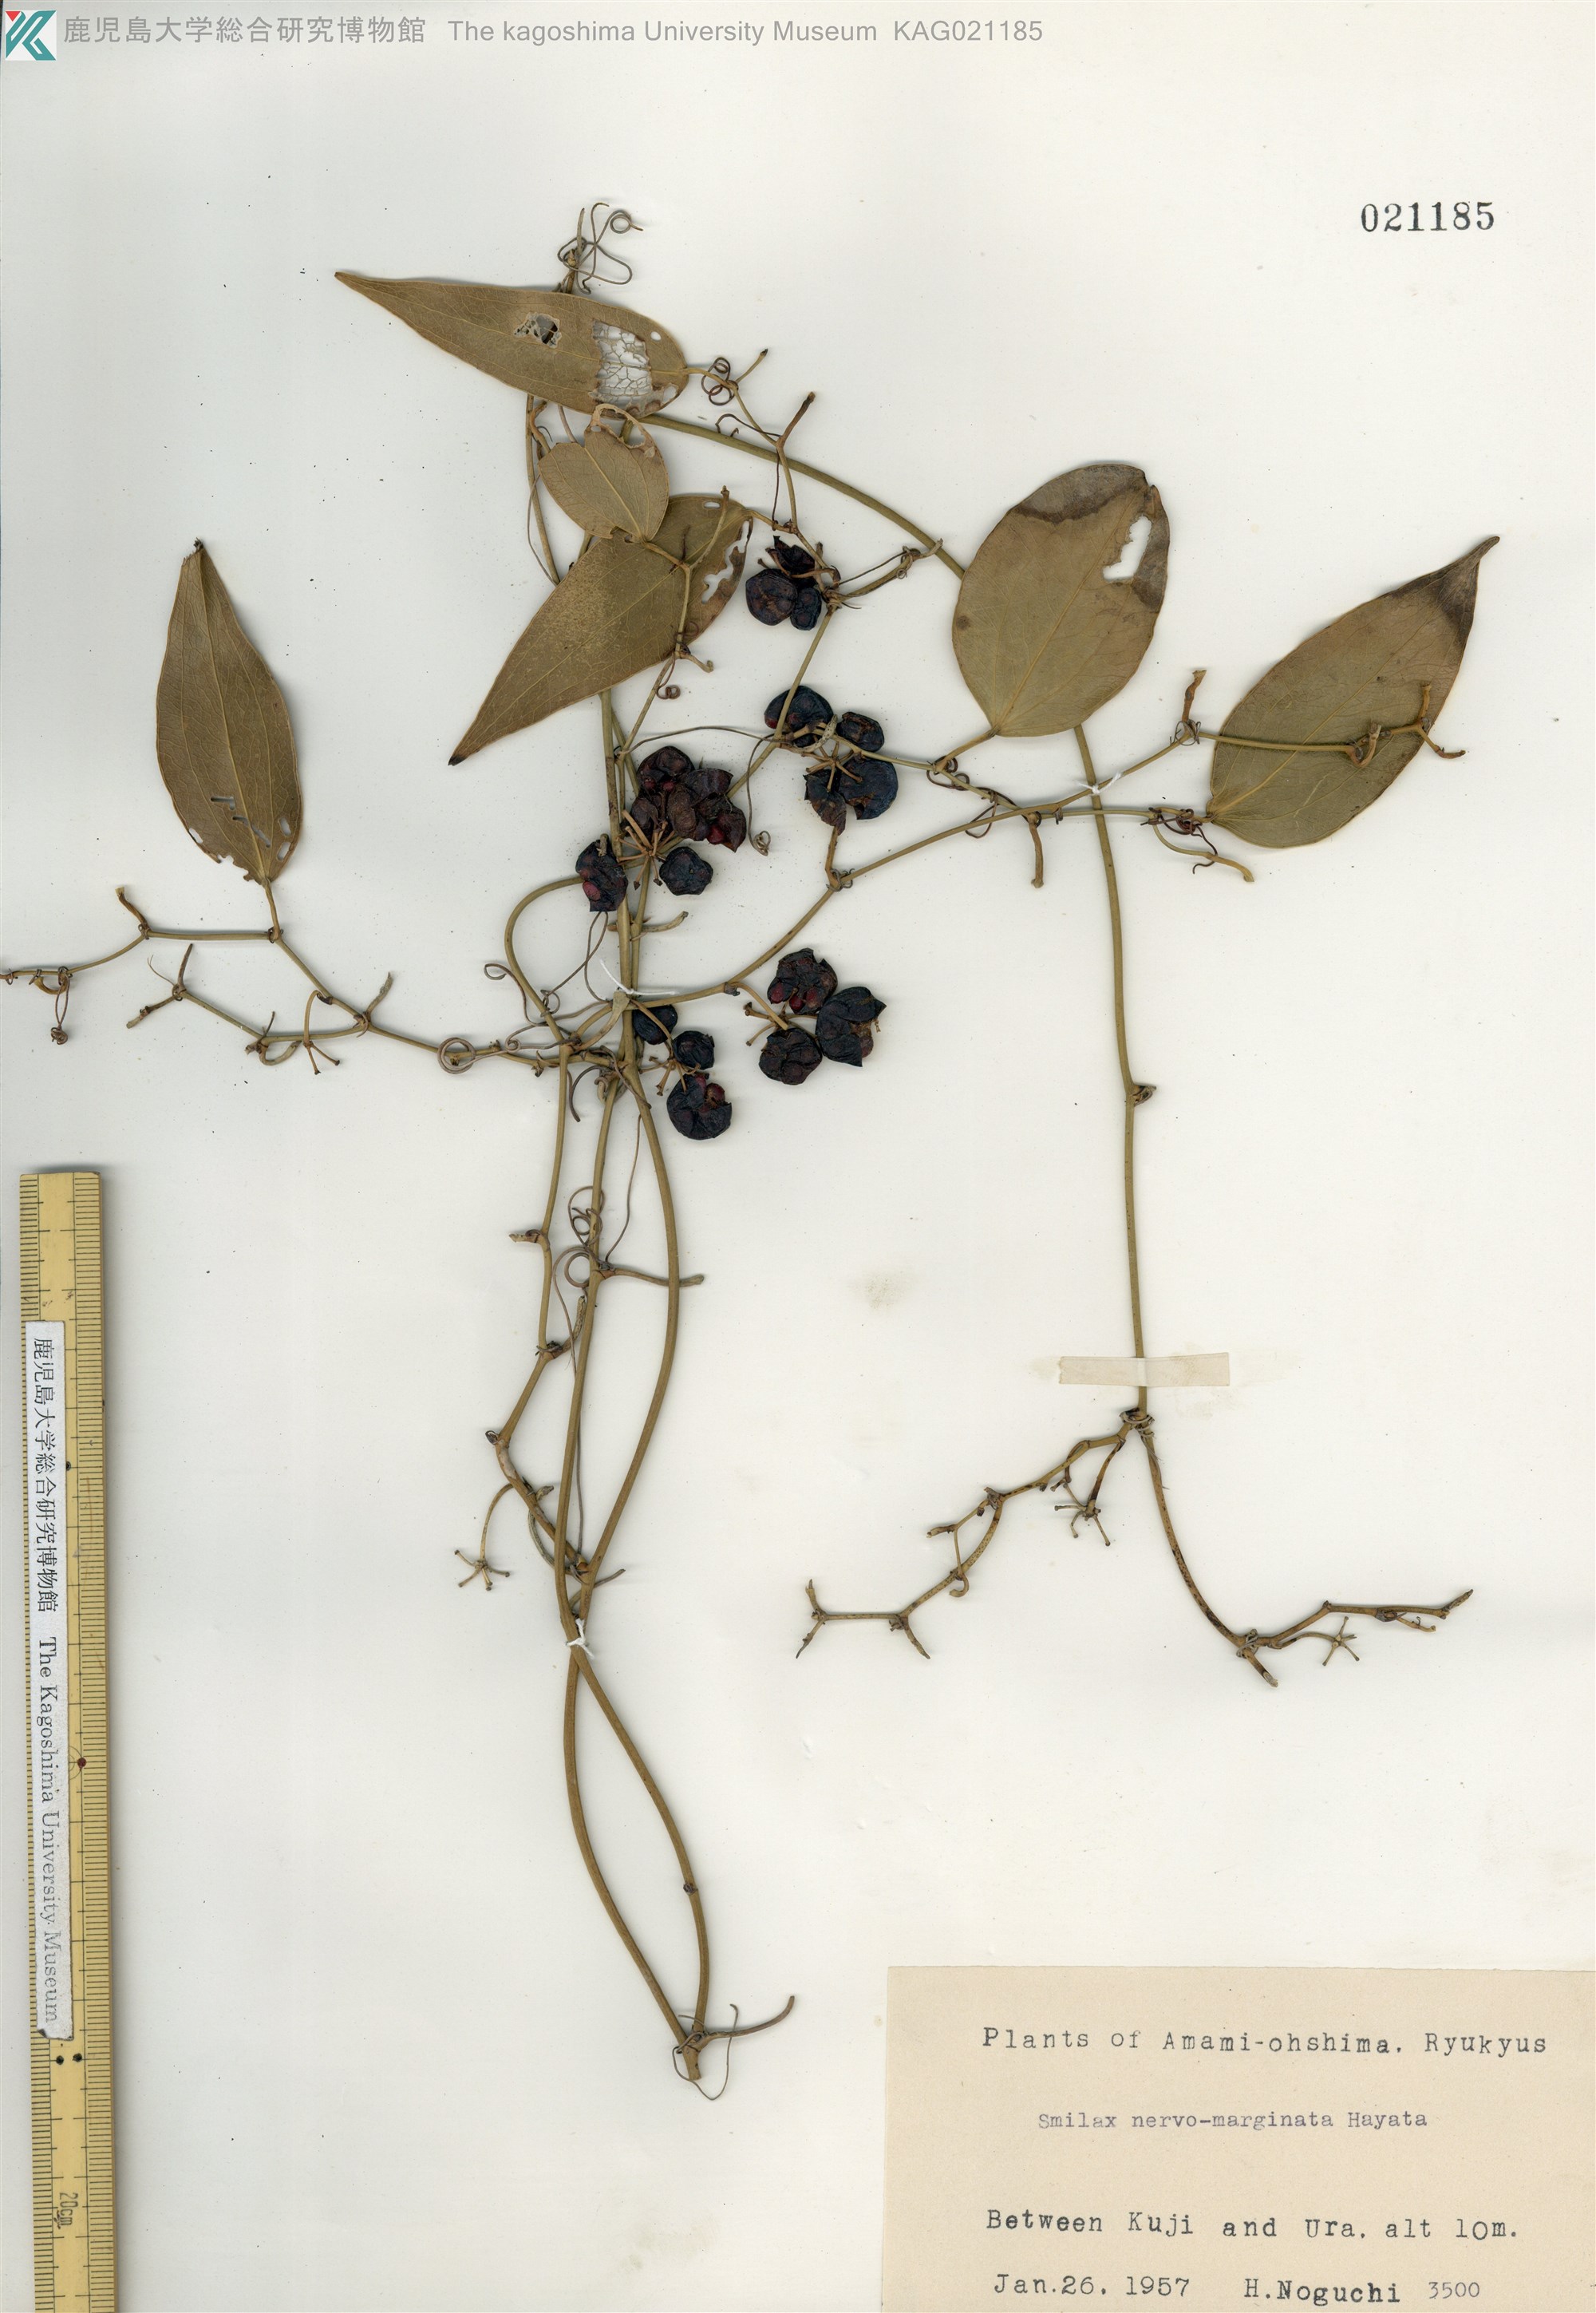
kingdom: Plantae
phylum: Tracheophyta
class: Liliopsida
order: Liliales
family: Smilacaceae
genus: Smilax
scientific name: Smilax nervomarginata
